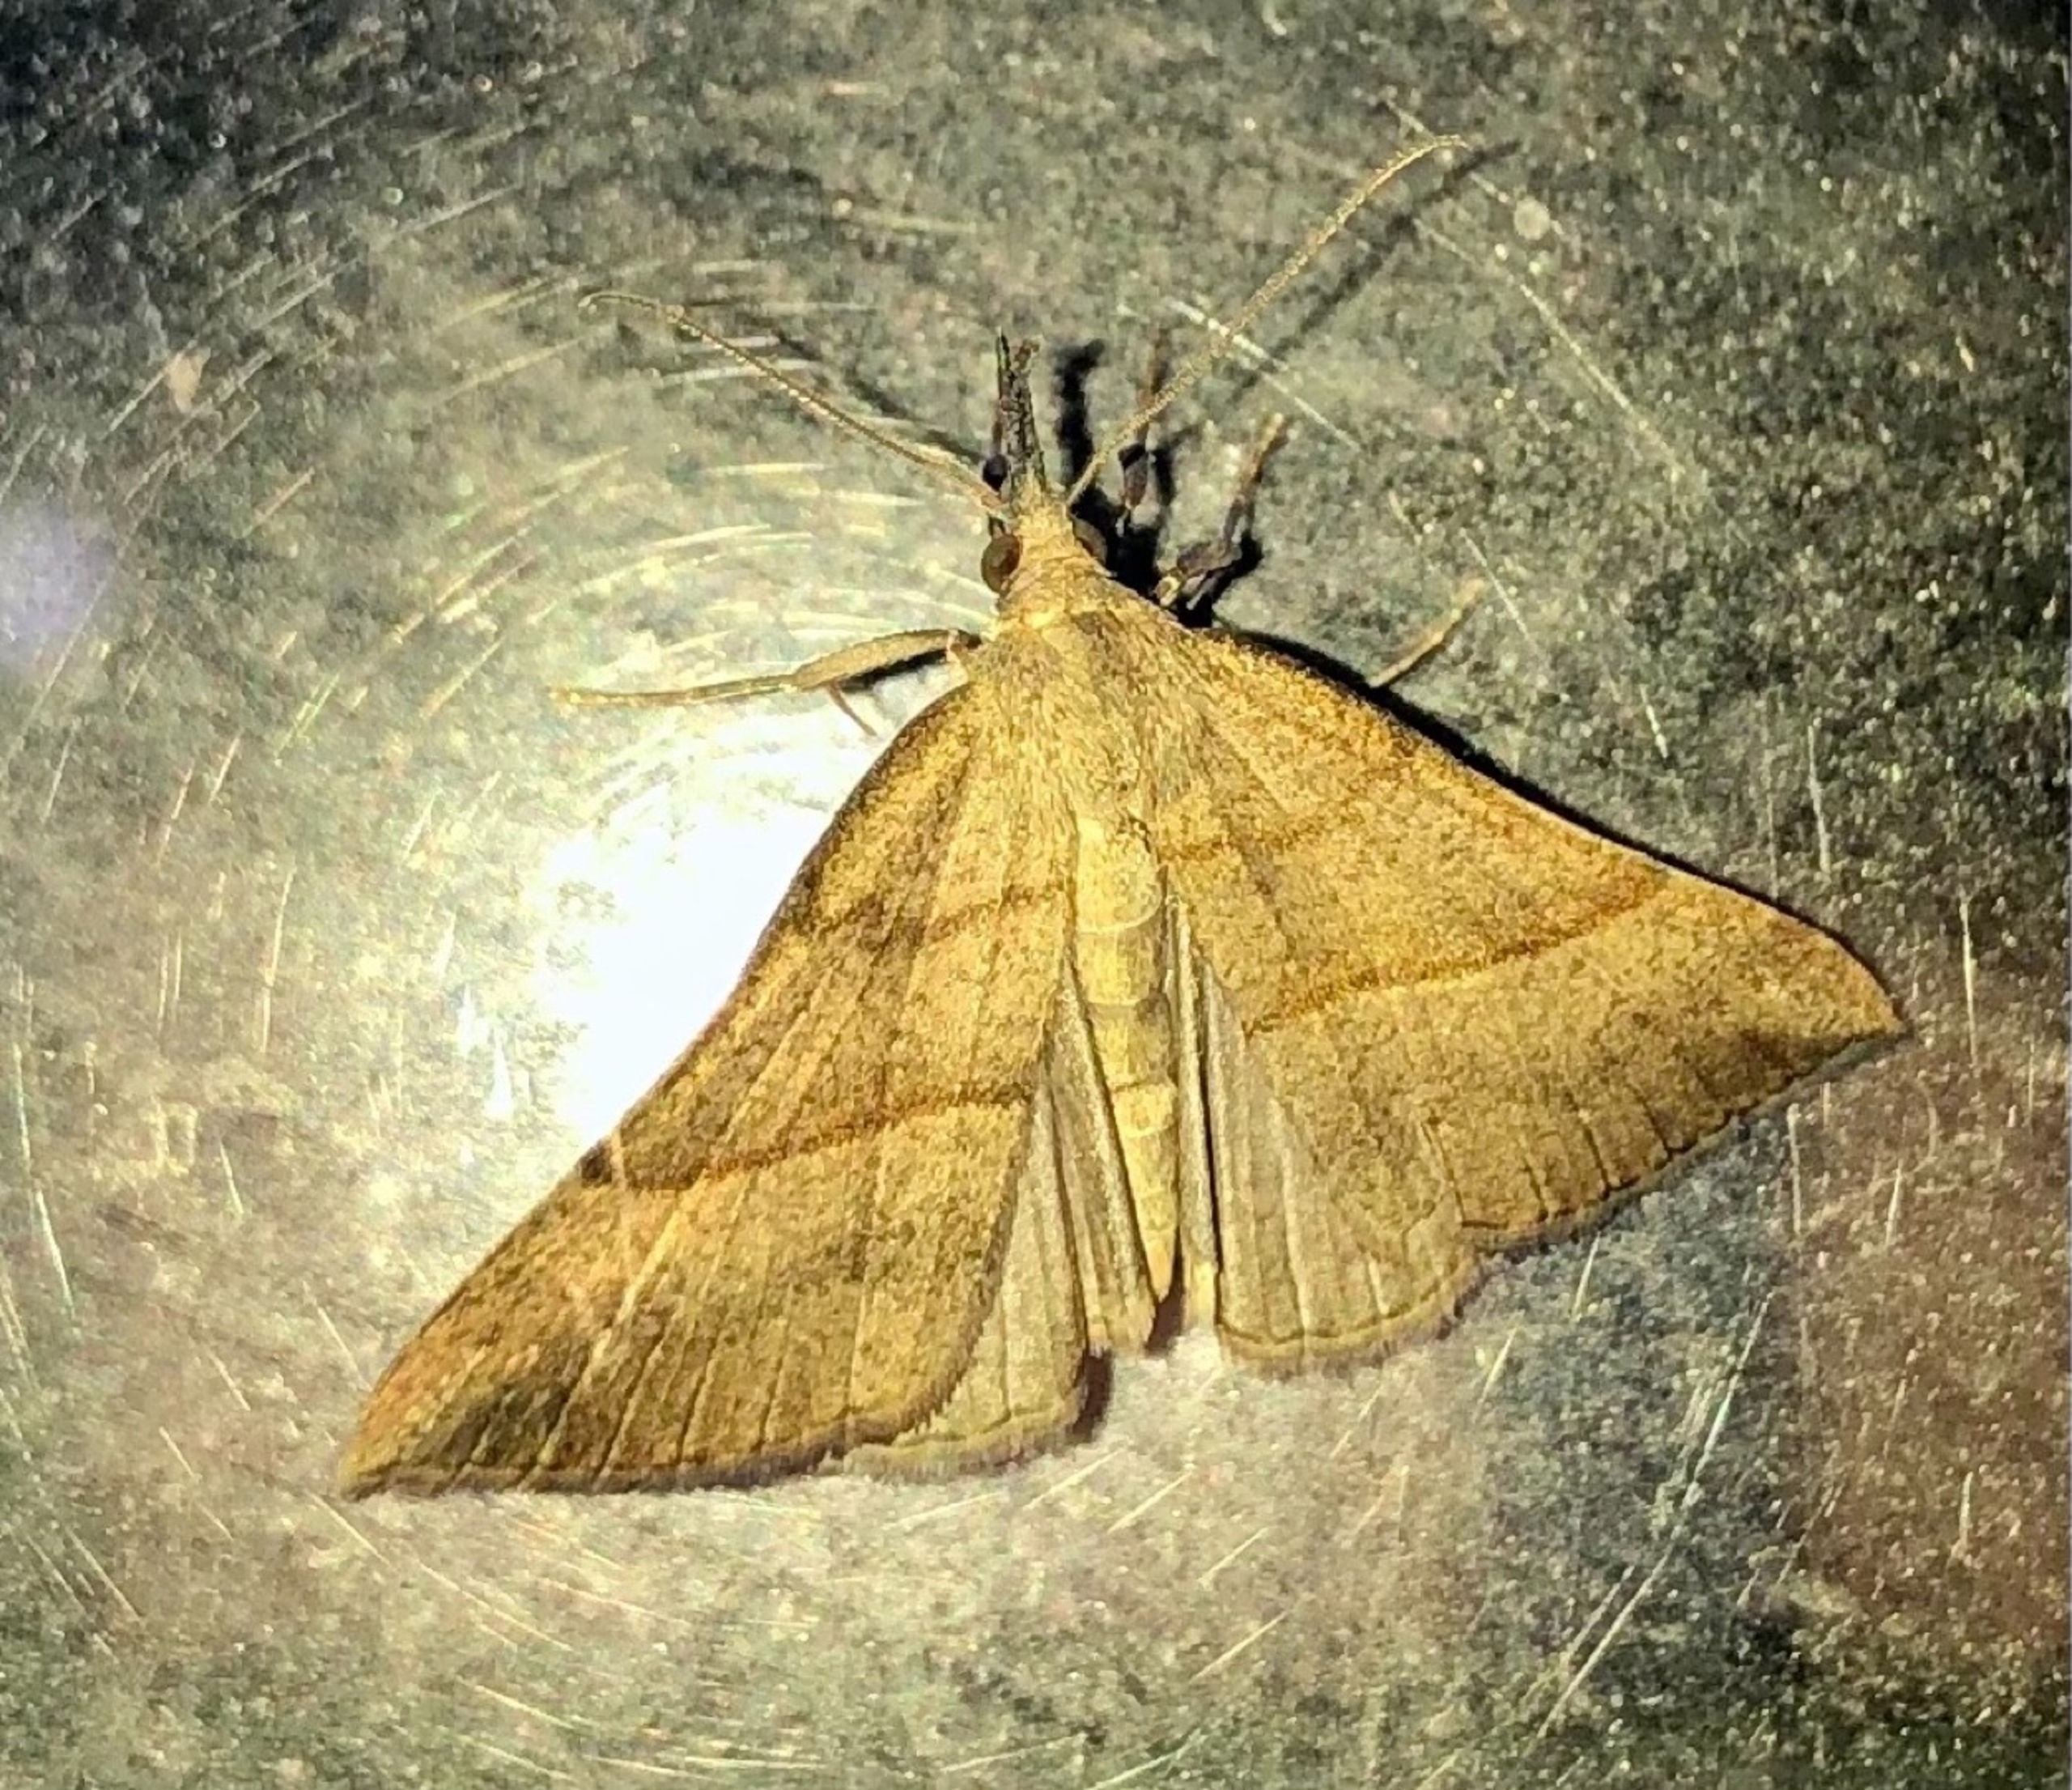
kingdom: Animalia
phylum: Arthropoda
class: Insecta
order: Lepidoptera
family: Erebidae
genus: Hypena
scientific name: Hypena proboscidalis
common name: Snudeugle
